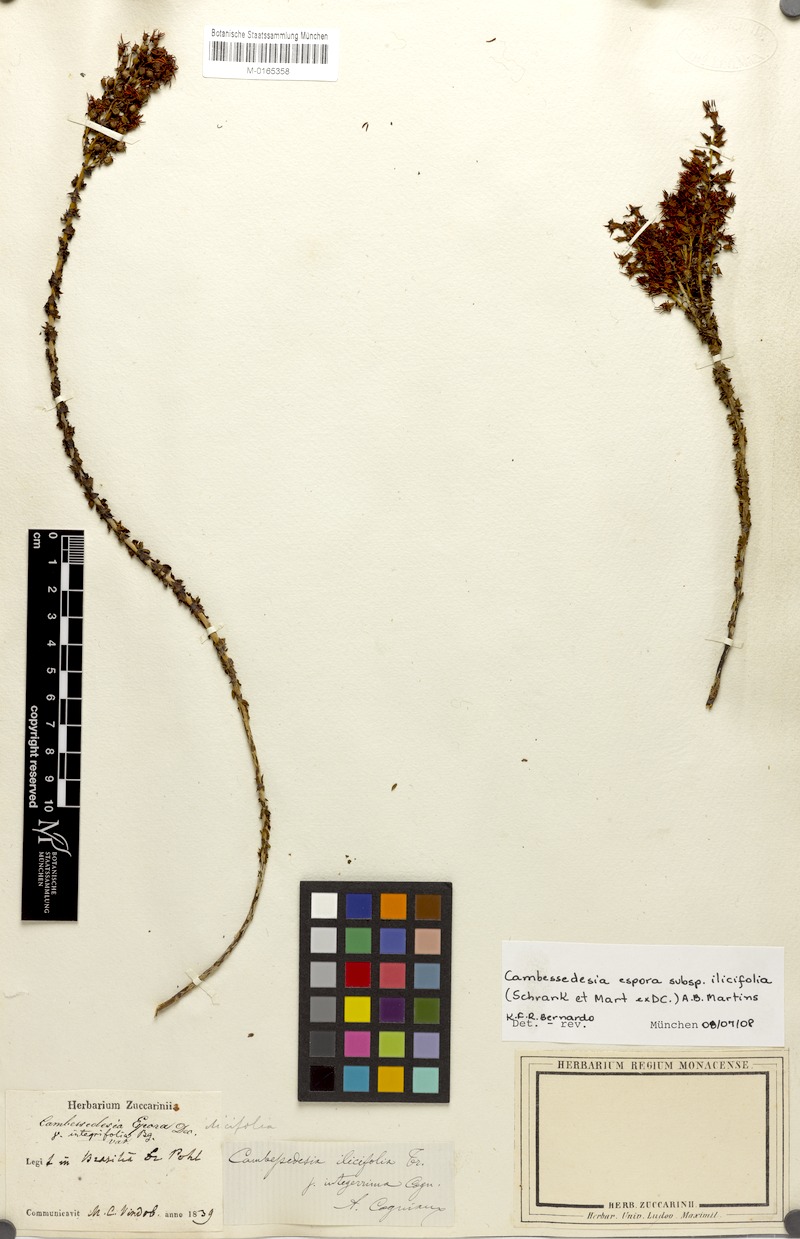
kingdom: Plantae
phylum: Tracheophyta
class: Magnoliopsida
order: Myrtales
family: Melastomataceae
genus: Cambessedesia
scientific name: Cambessedesia espora
